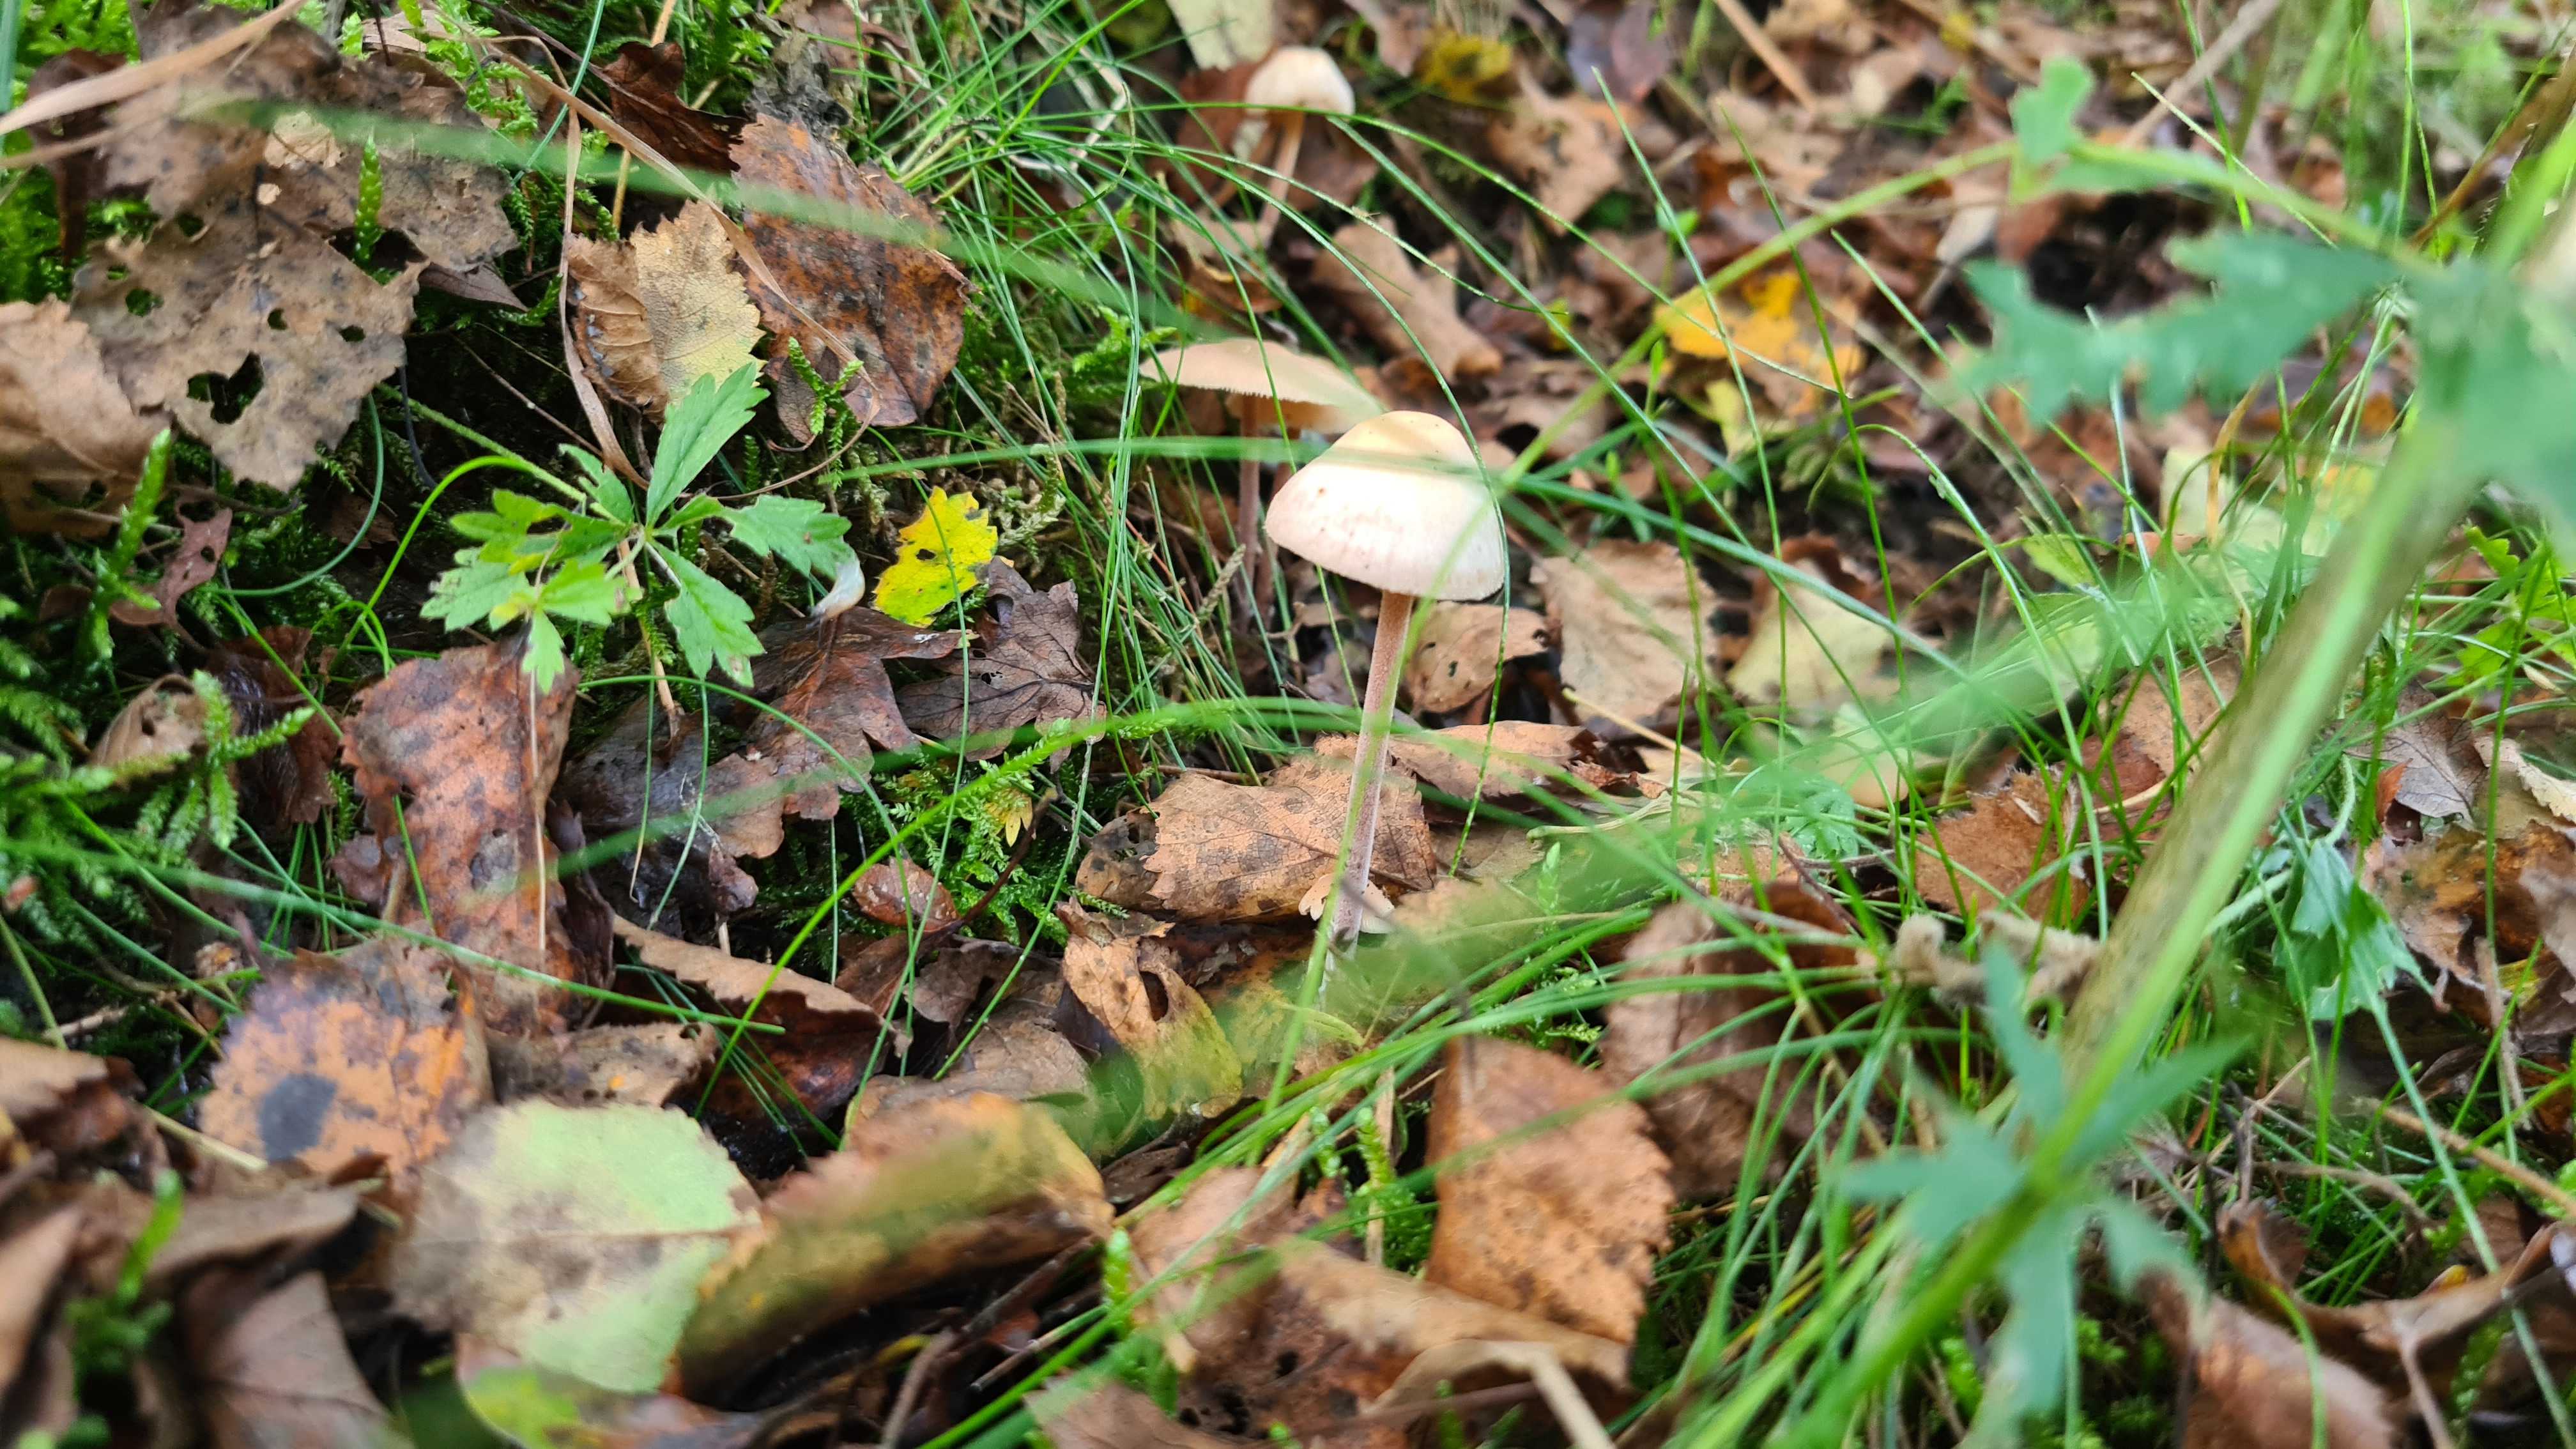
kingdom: Fungi
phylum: Basidiomycota
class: Agaricomycetes
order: Agaricales
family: Omphalotaceae
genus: Collybiopsis
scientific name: Collybiopsis confluens
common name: knippe-fladhat
